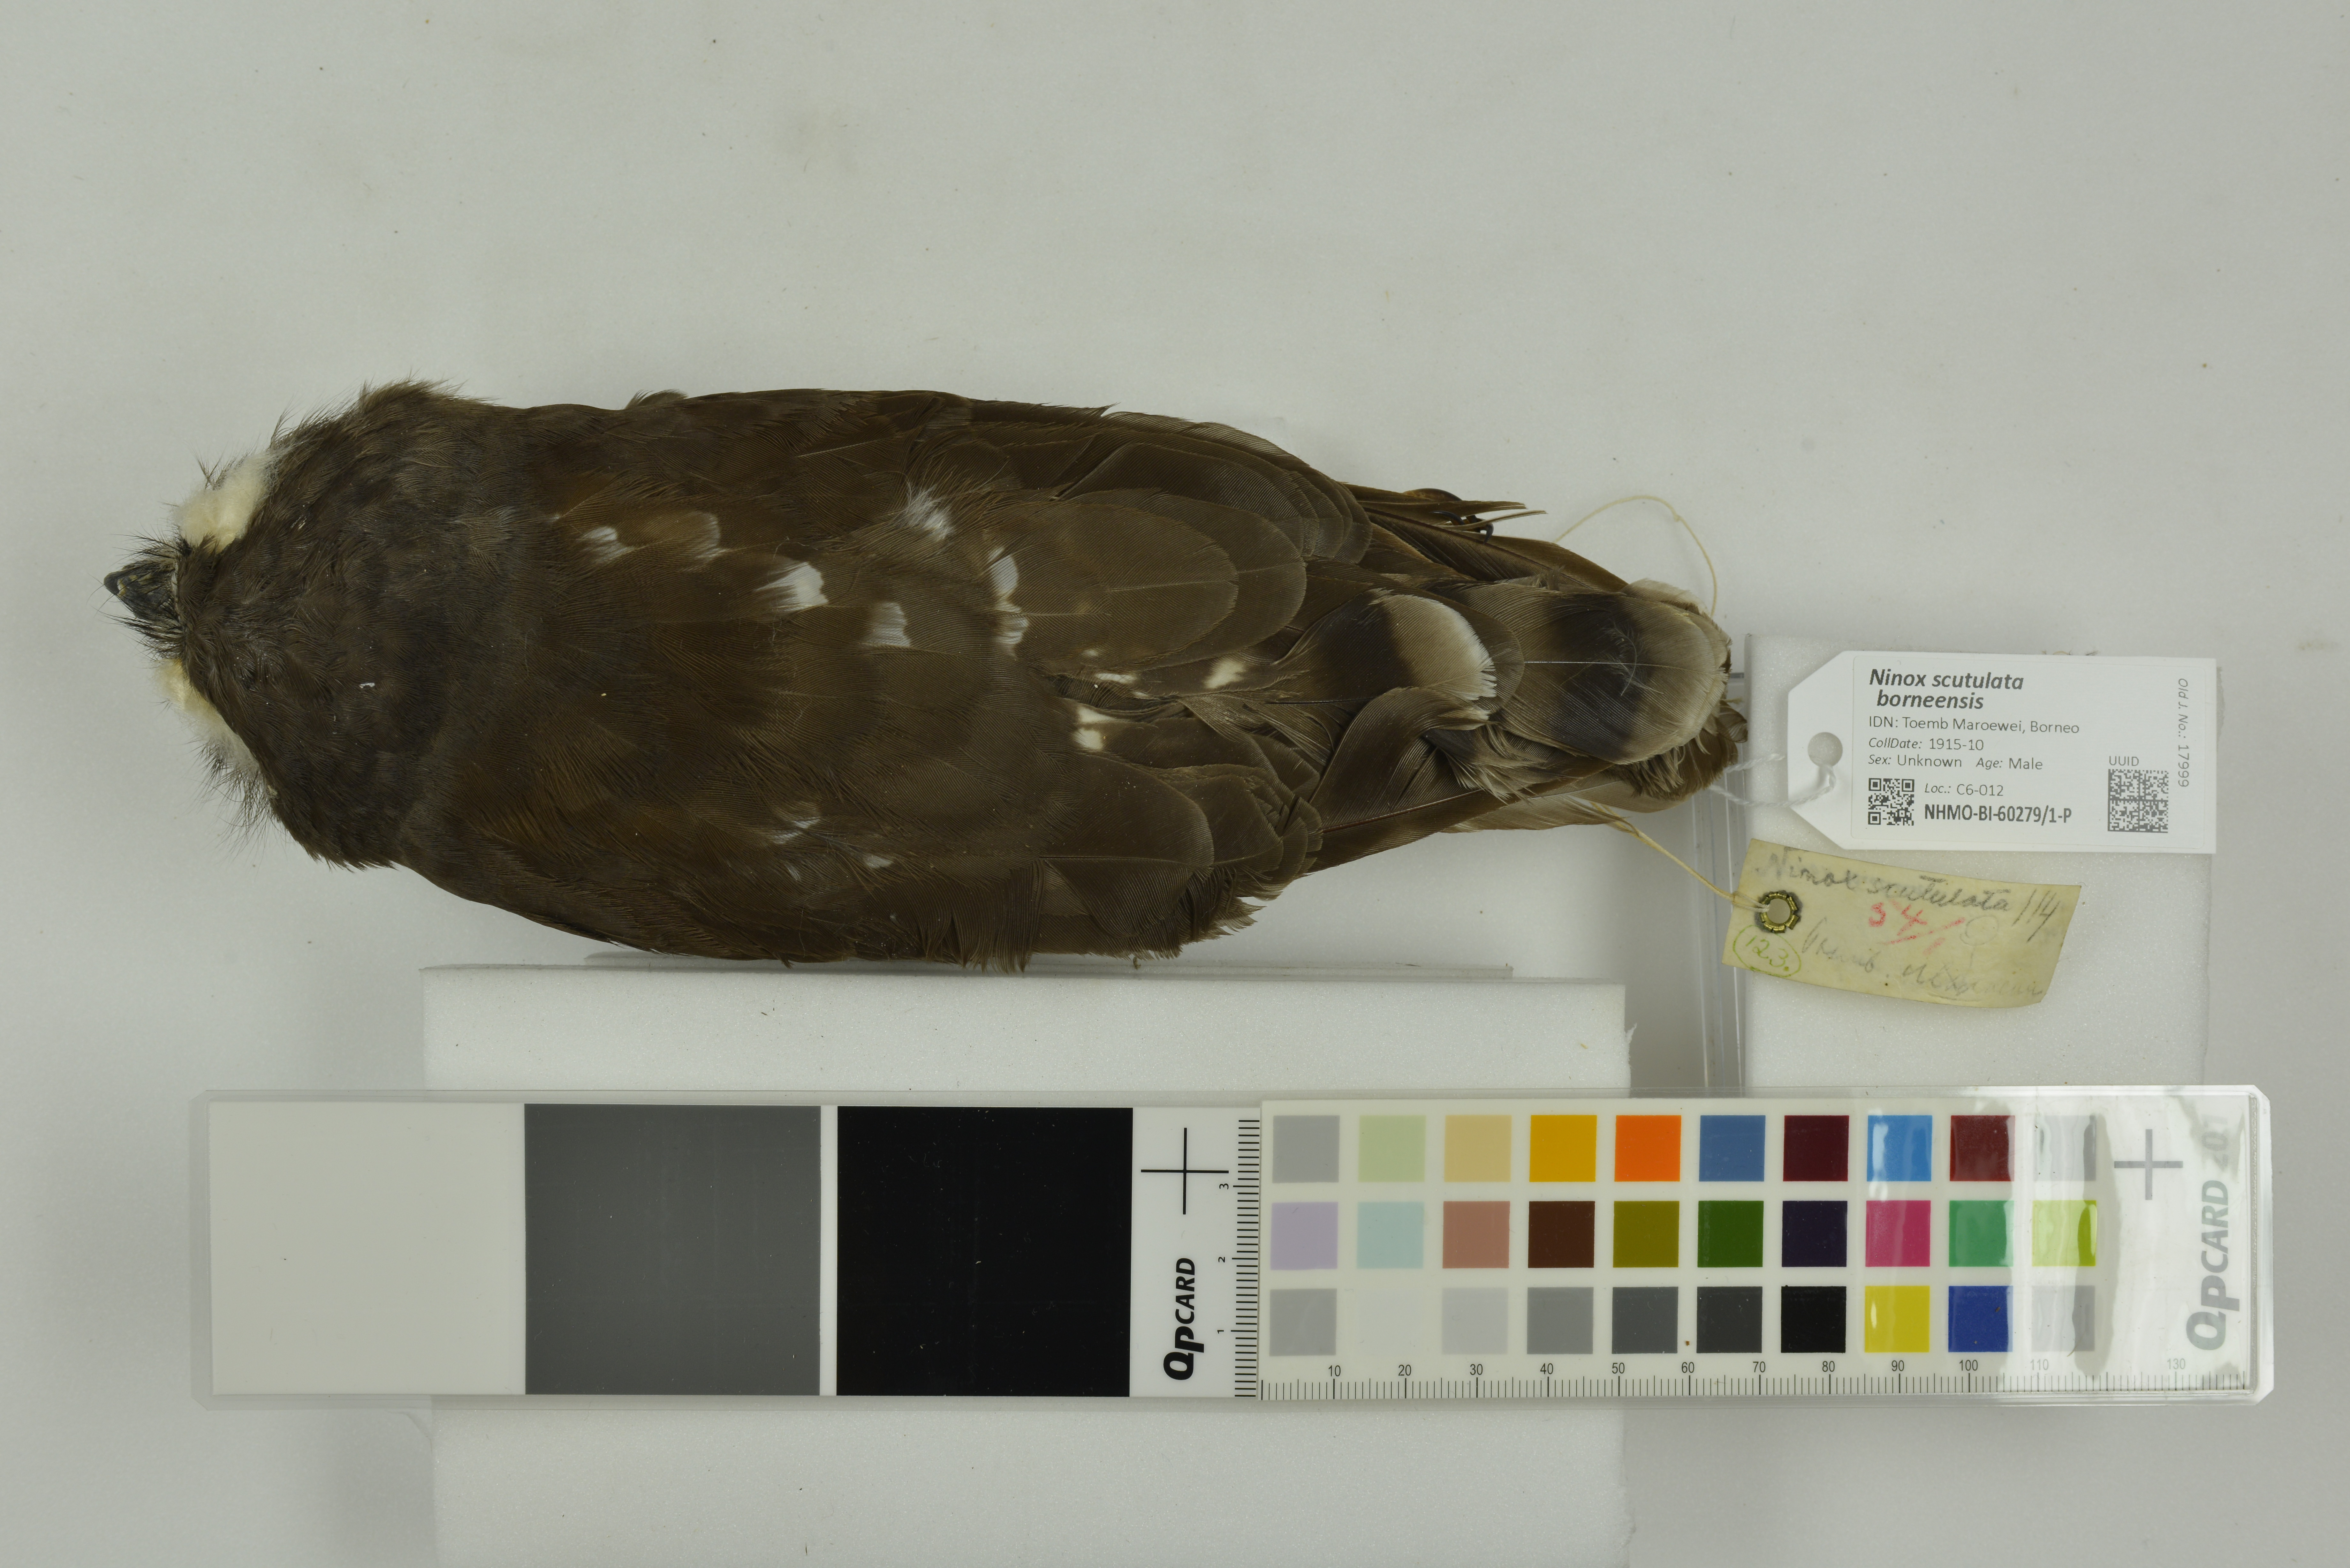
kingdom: Animalia
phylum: Chordata
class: Aves
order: Strigiformes
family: Strigidae
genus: Ninox
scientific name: Ninox scutulata
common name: Brown hawk-owl
